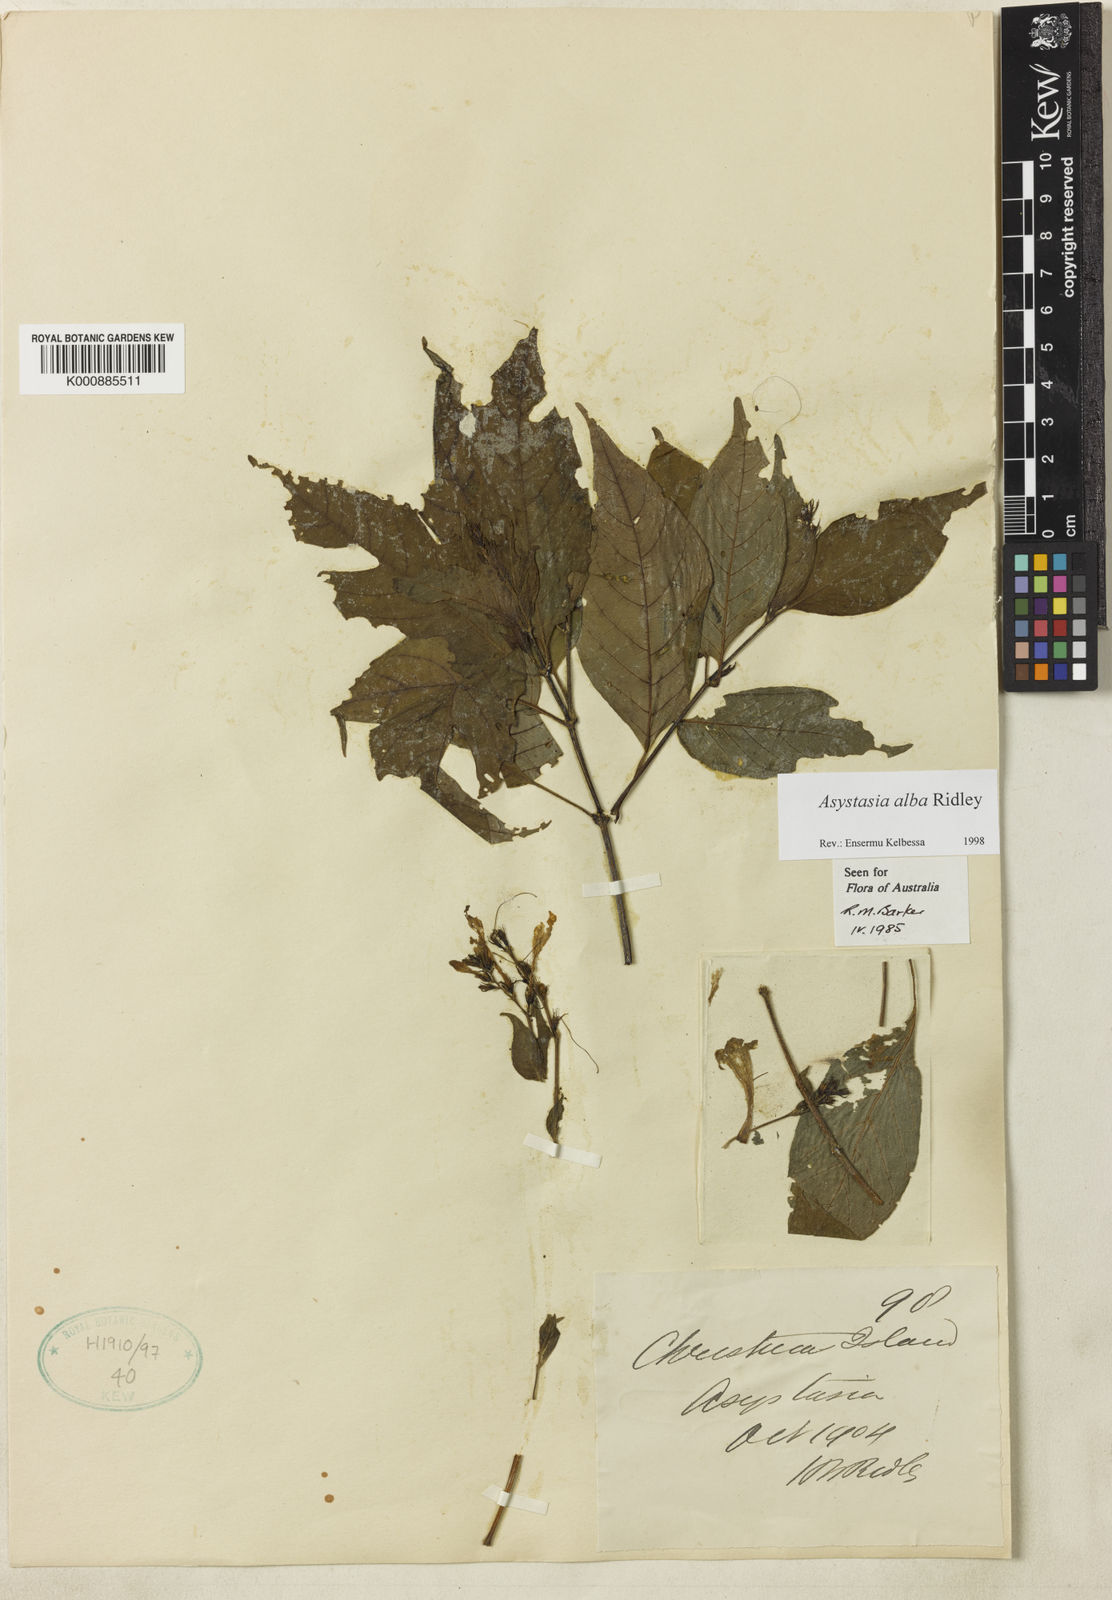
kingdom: Plantae
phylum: Tracheophyta
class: Magnoliopsida
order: Lamiales
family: Acanthaceae
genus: Asystasia
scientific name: Asystasia
